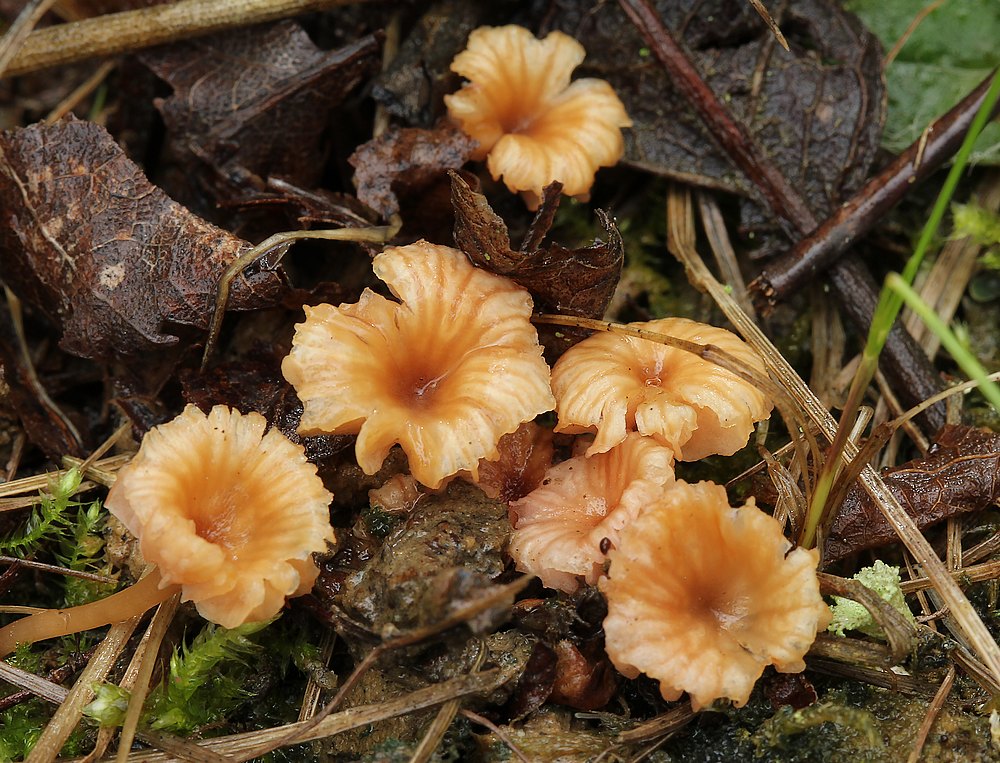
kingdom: Fungi
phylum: Basidiomycota
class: Agaricomycetes
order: Agaricales
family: Hydnangiaceae
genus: Laccaria
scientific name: Laccaria tortilis
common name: krybende ametysthat
